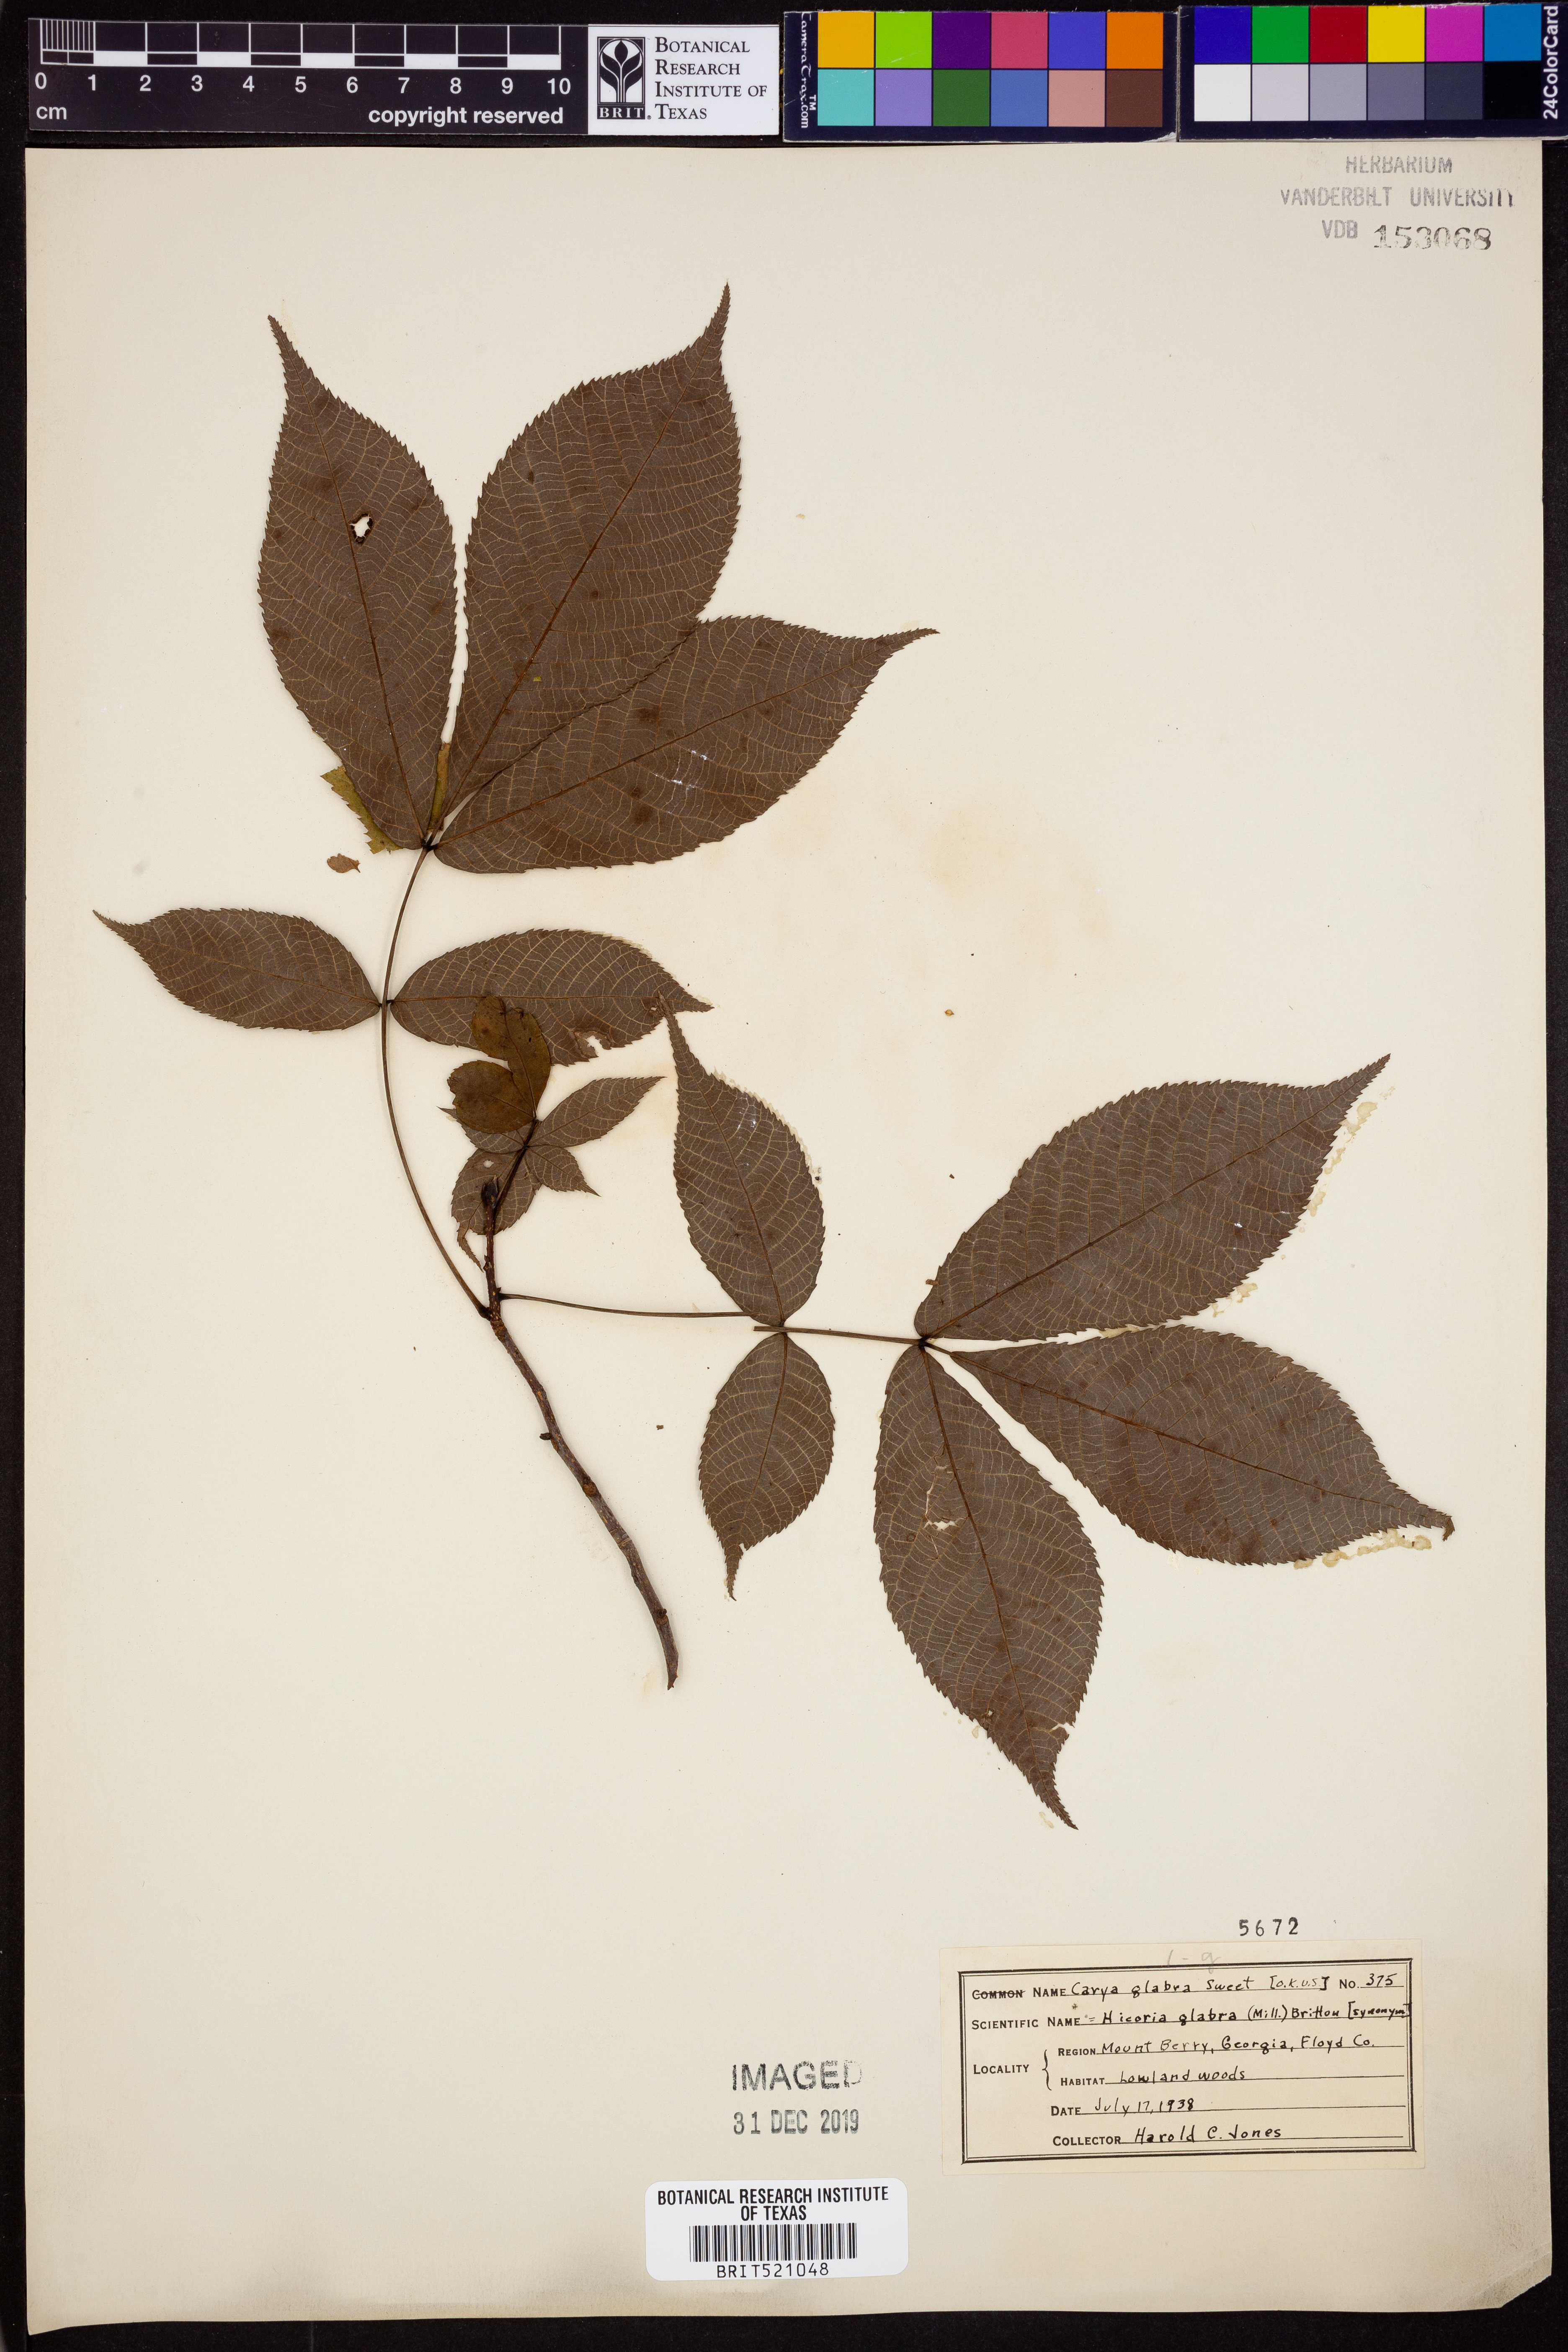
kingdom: Plantae
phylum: Tracheophyta
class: Magnoliopsida
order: Fagales
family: Juglandaceae
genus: Carya
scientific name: Carya glabra
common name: Pignut hickory
